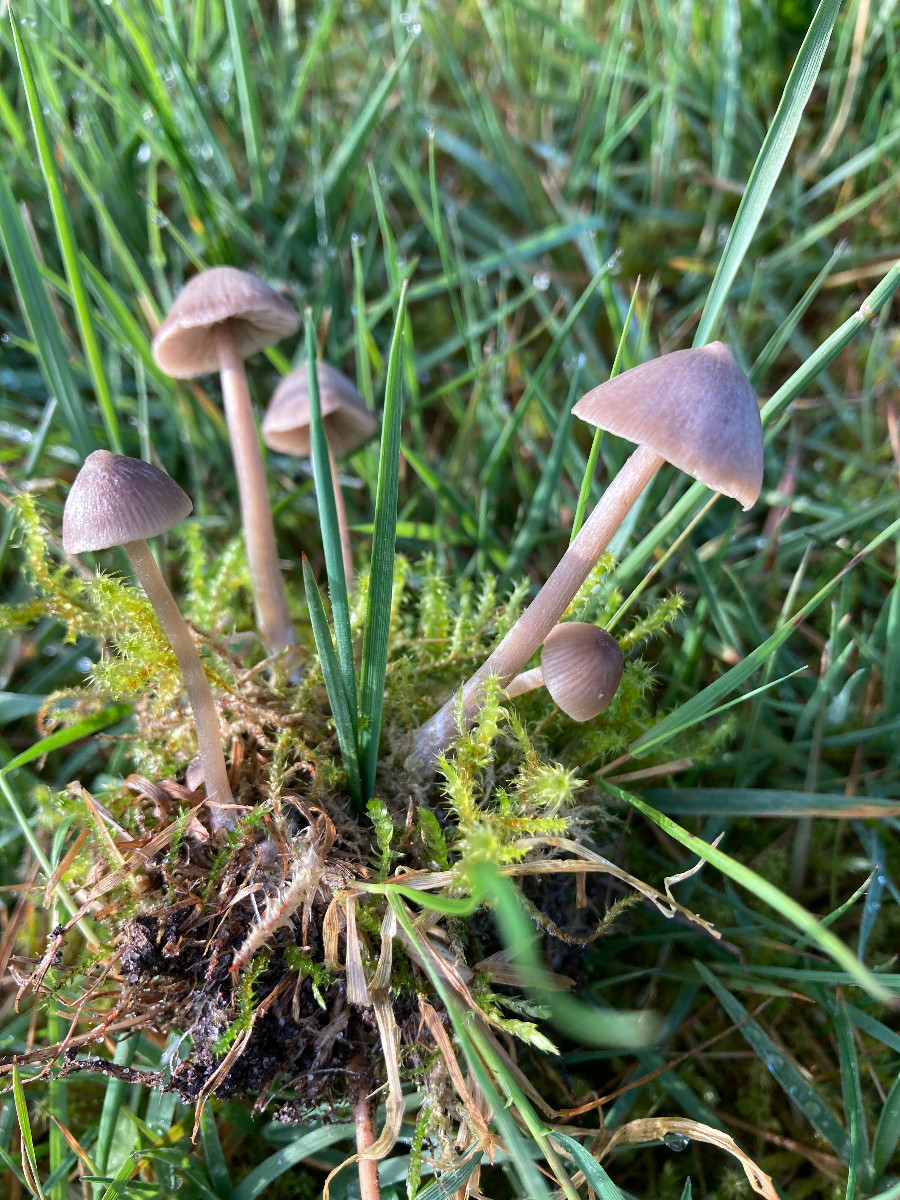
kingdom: Fungi
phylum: Basidiomycota
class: Agaricomycetes
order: Agaricales
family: Entolomataceae
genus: Entoloma
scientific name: Entoloma
